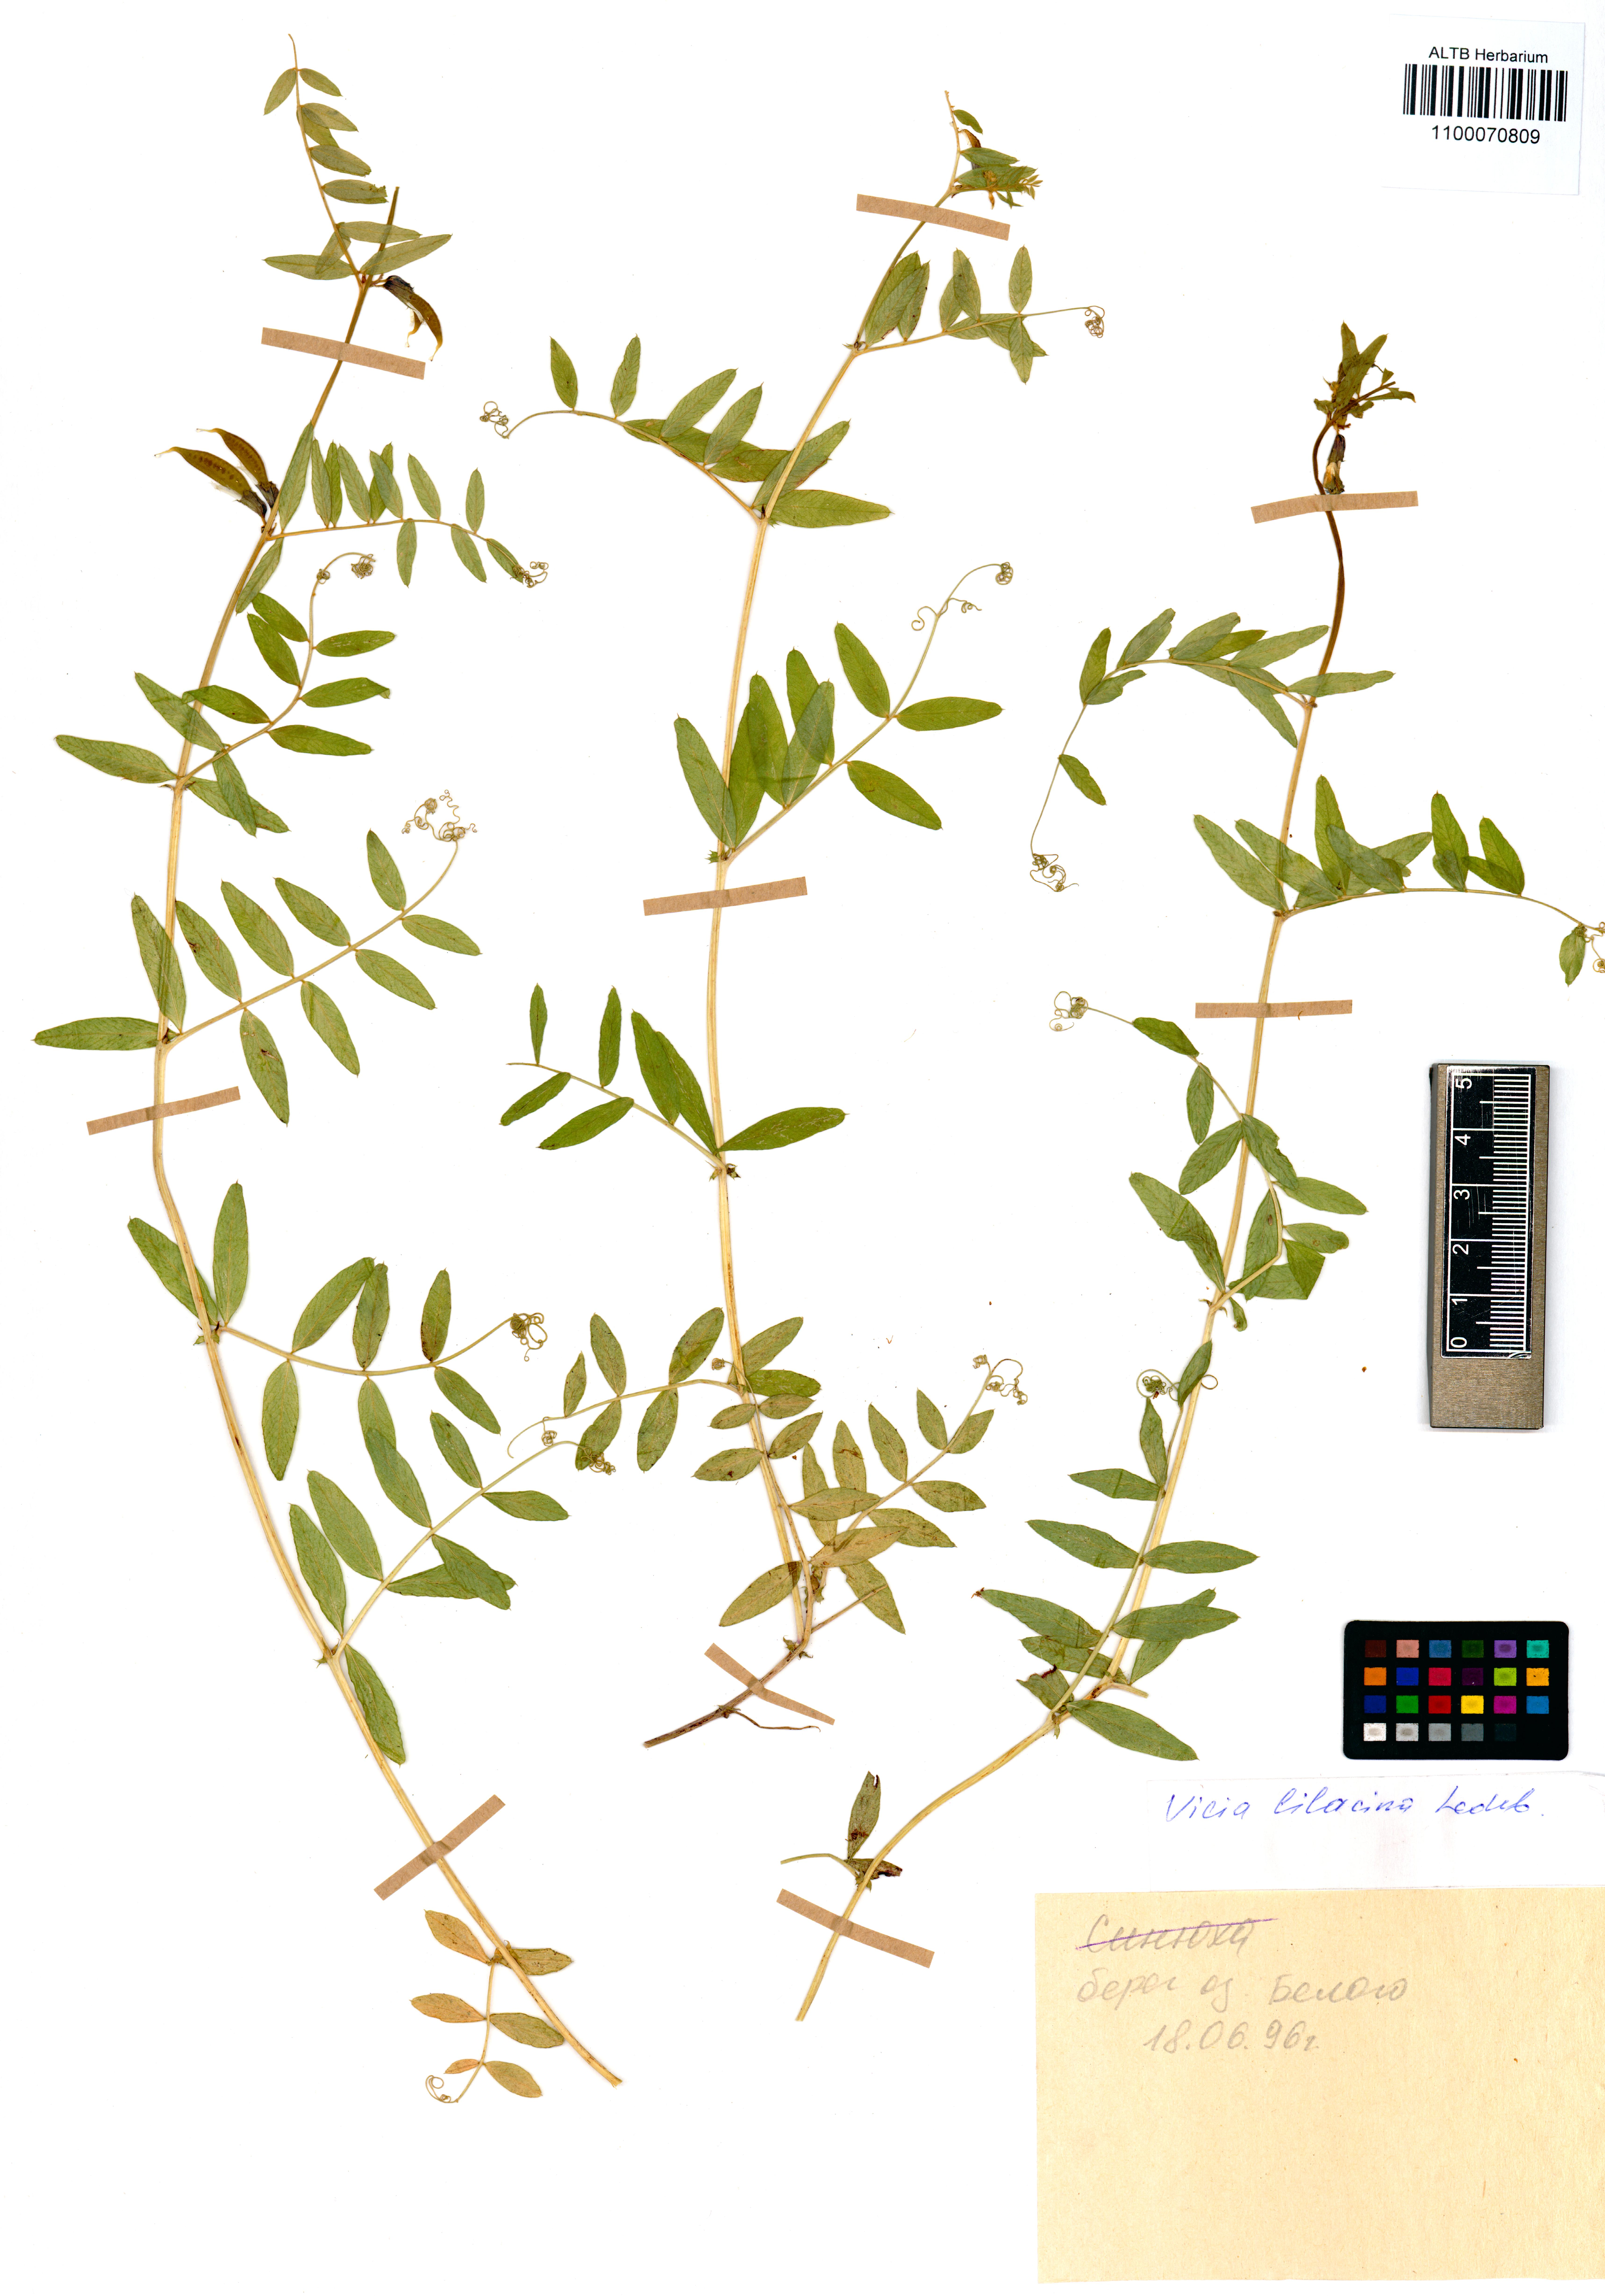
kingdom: Plantae
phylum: Tracheophyta
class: Magnoliopsida
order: Fabales
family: Fabaceae
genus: Vicia
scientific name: Vicia lilacina
